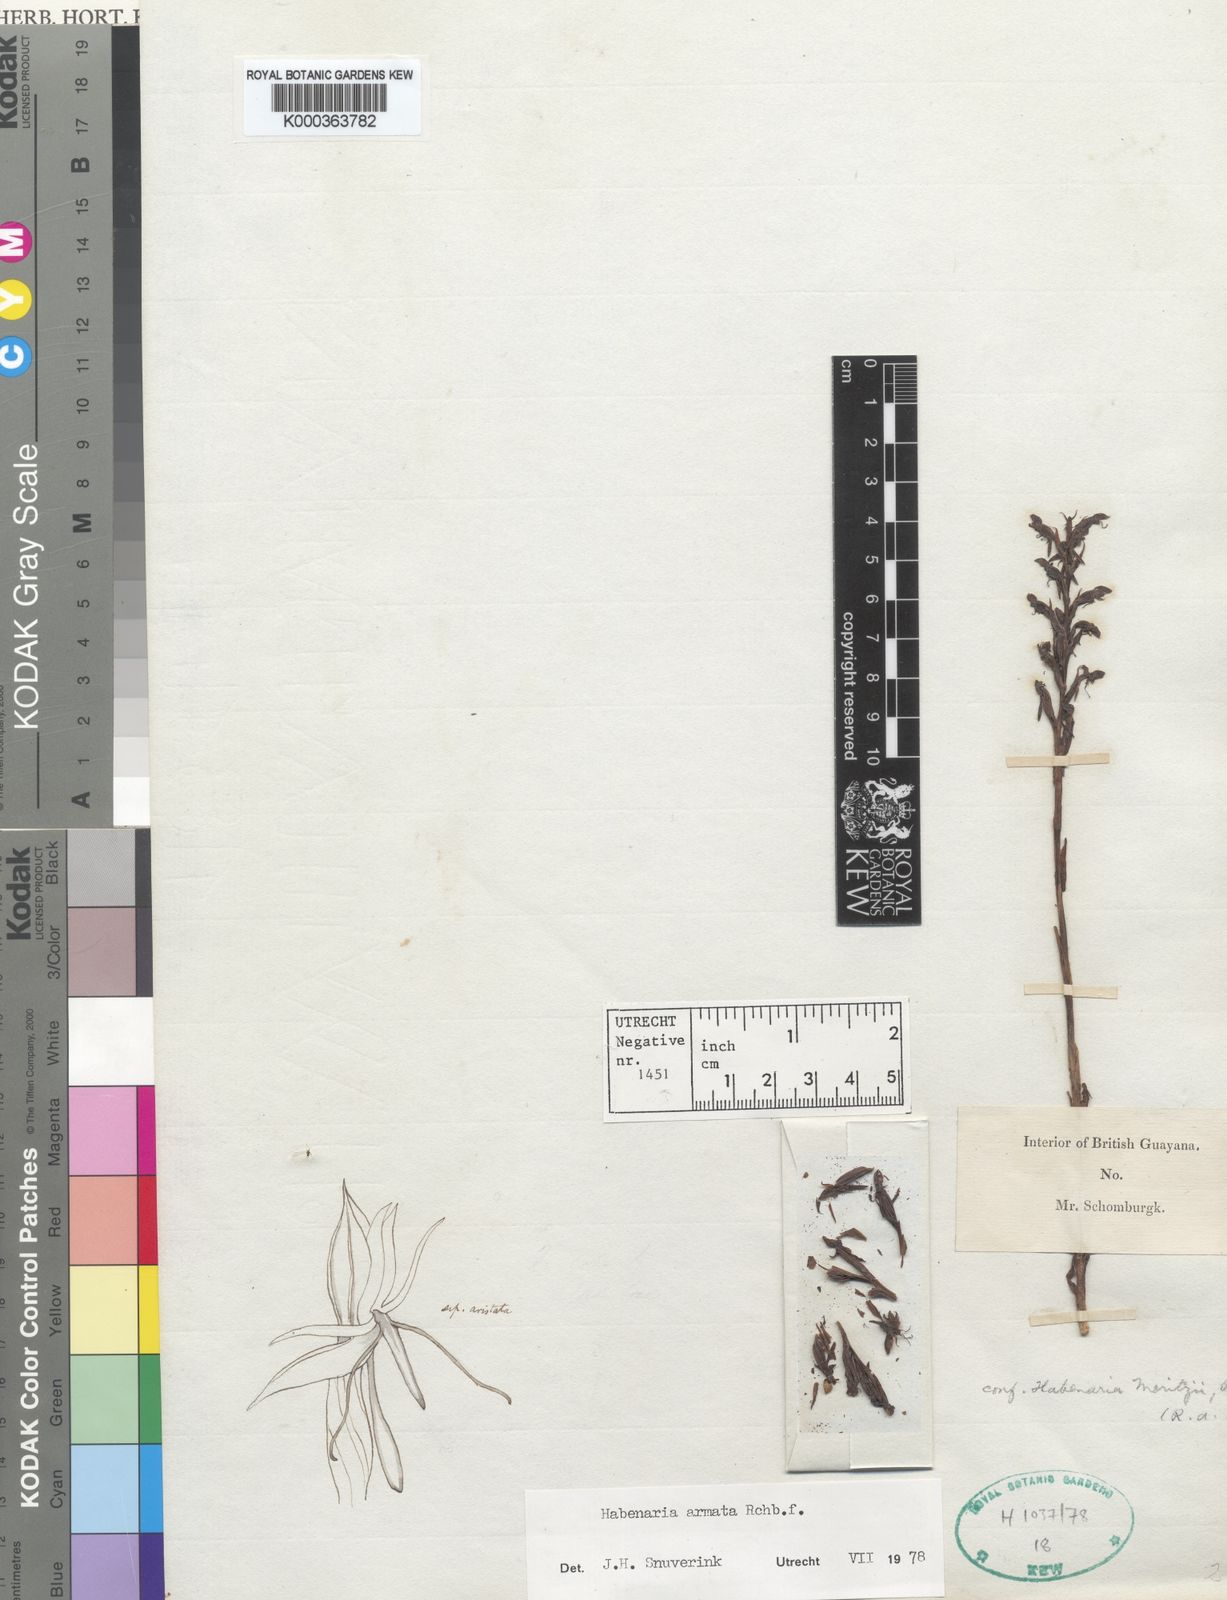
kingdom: Plantae
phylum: Tracheophyta
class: Liliopsida
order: Asparagales
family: Orchidaceae
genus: Habenaria
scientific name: Habenaria armata
